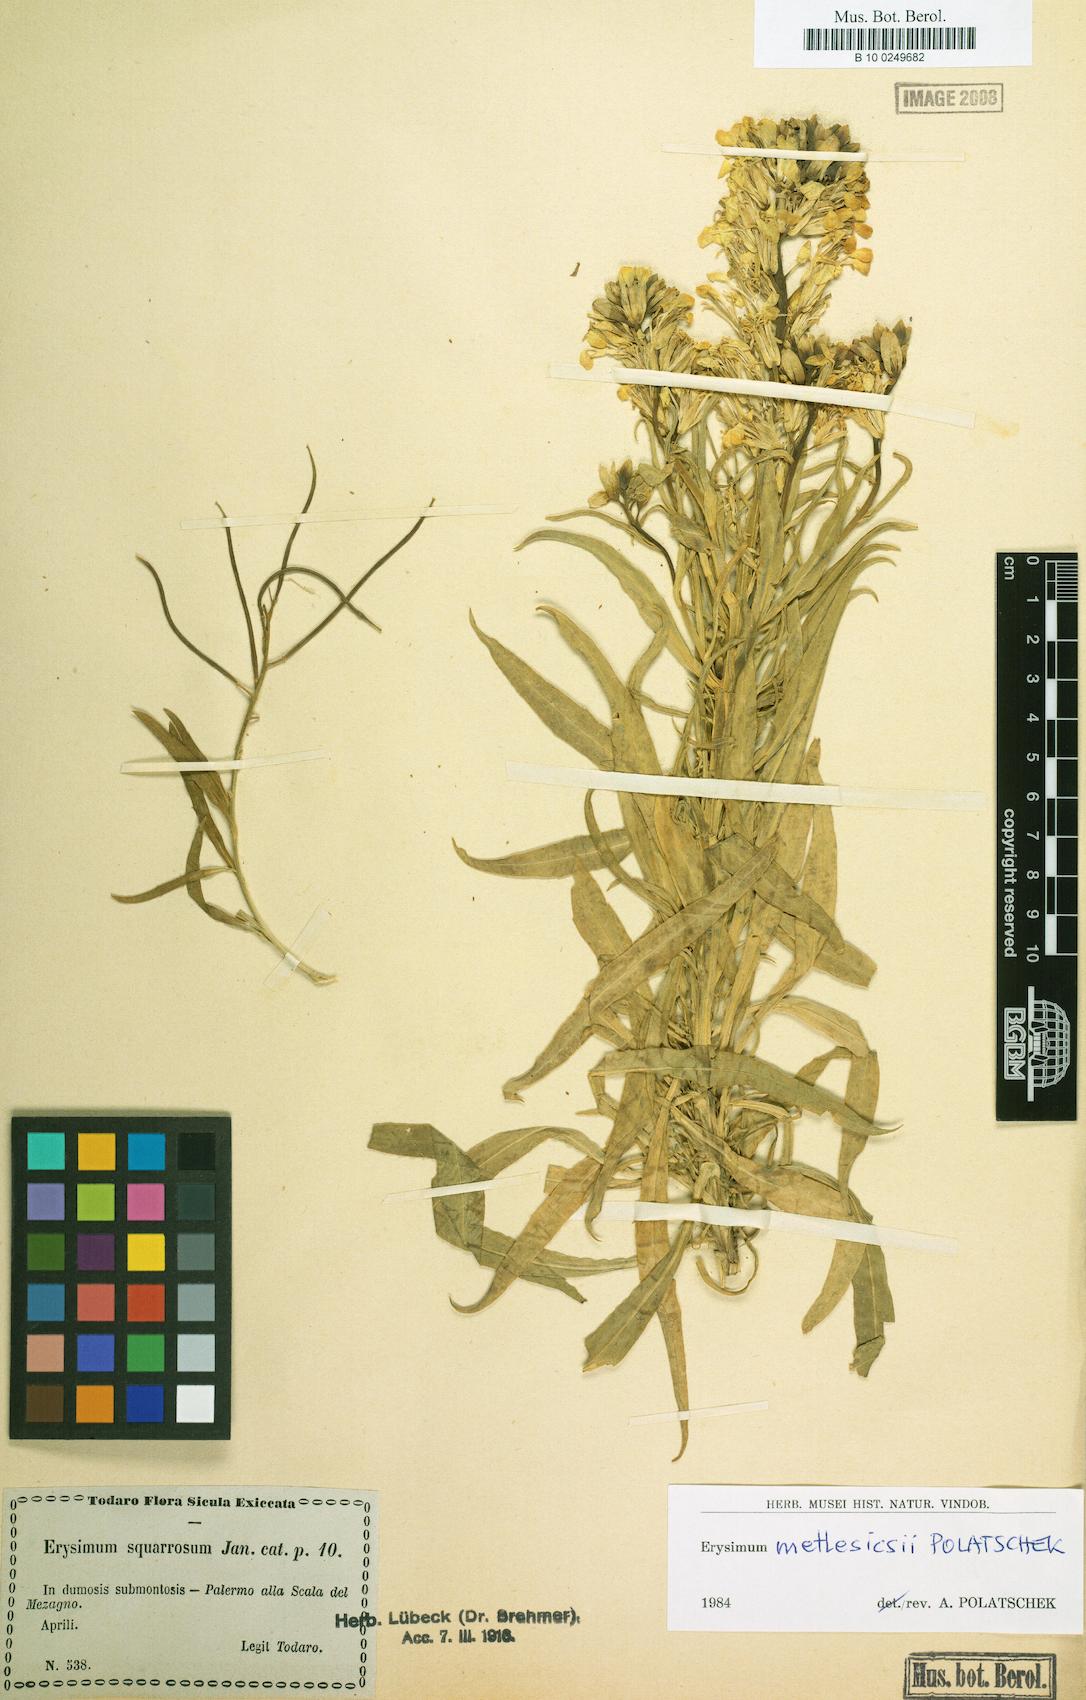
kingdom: Plantae
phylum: Tracheophyta
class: Magnoliopsida
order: Brassicales
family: Brassicaceae
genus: Erysimum
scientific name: Erysimum metlesicsii
